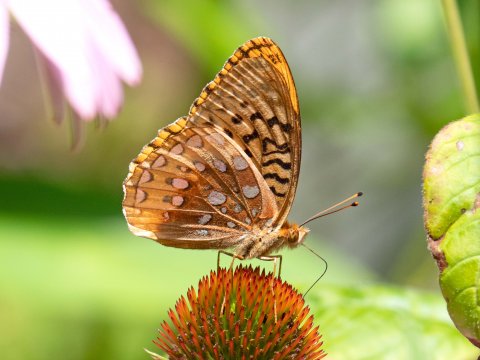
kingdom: Animalia
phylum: Arthropoda
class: Insecta
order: Lepidoptera
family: Nymphalidae
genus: Speyeria
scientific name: Speyeria cybele
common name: Great Spangled Fritillary
